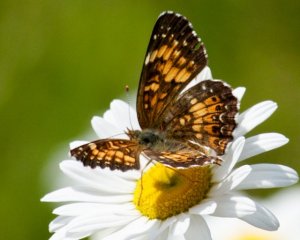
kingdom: Animalia
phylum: Arthropoda
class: Insecta
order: Lepidoptera
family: Nymphalidae
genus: Chlosyne
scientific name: Chlosyne harrisii
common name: Harris's Checkerspot
